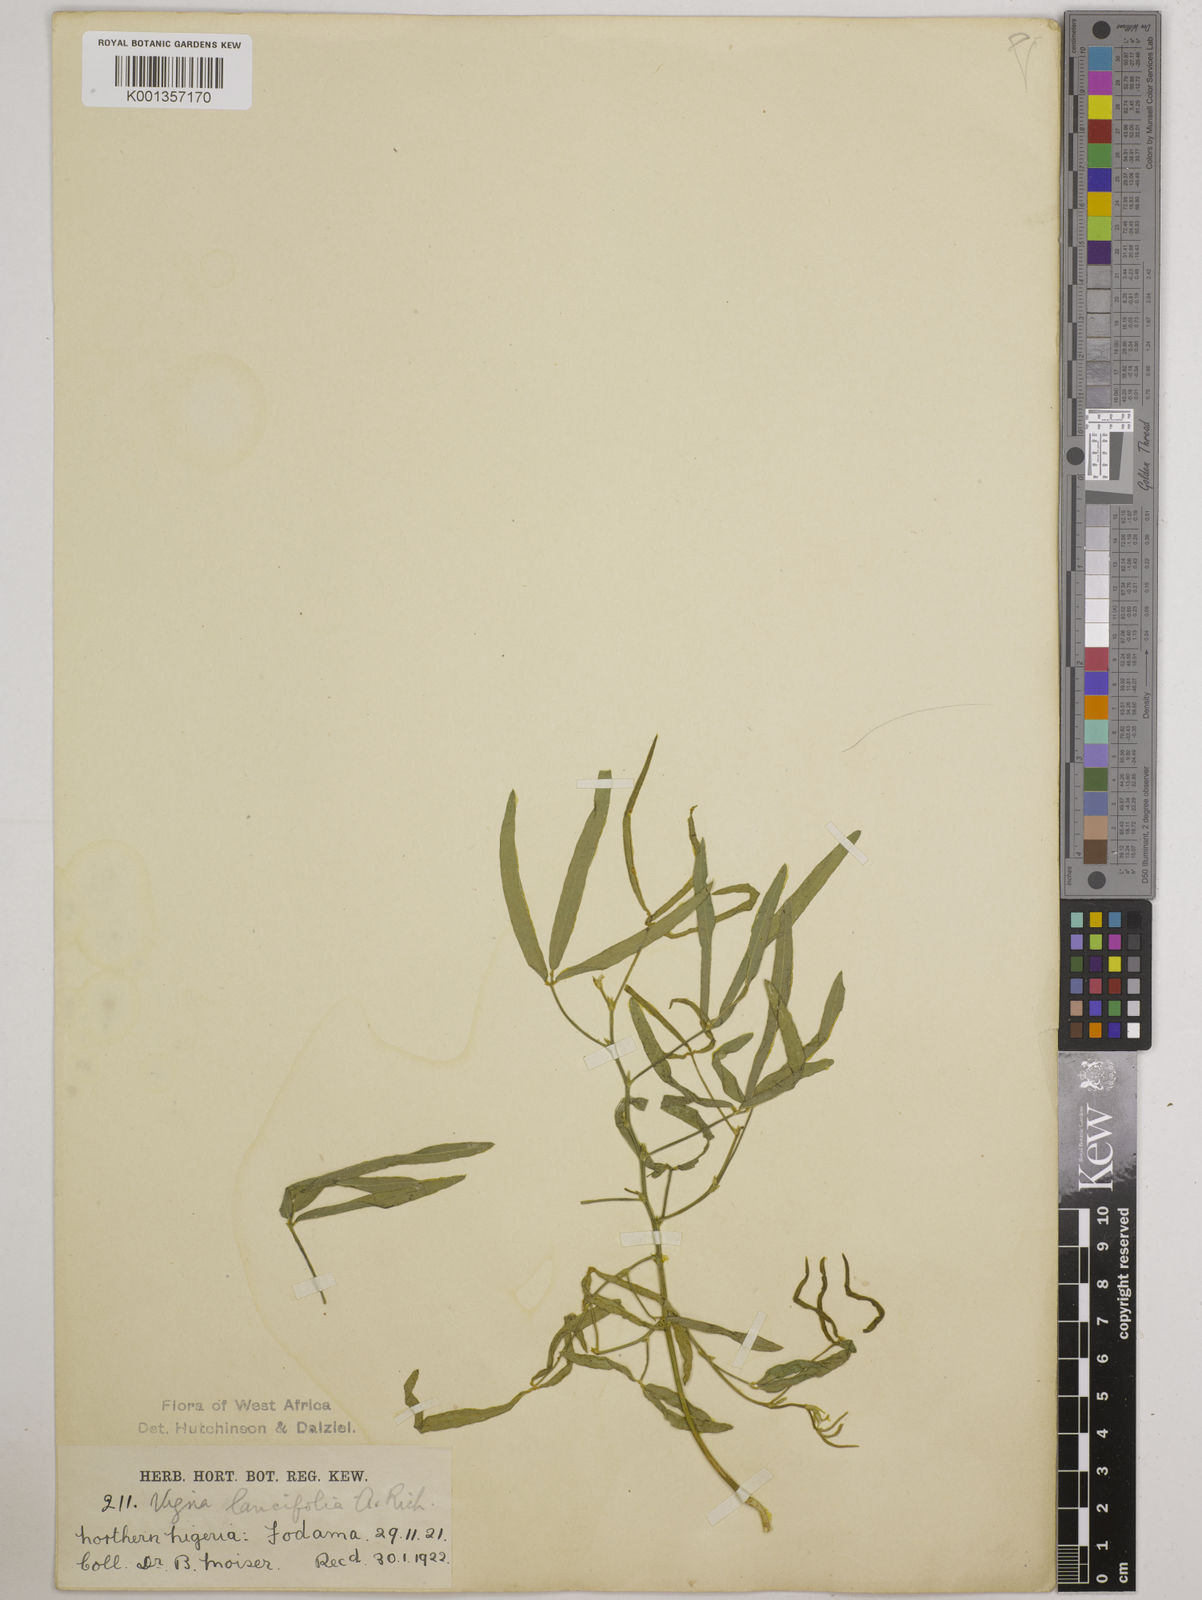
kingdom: Plantae
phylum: Tracheophyta
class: Magnoliopsida
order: Fabales
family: Fabaceae
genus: Vigna
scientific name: Vigna oblongifolia
